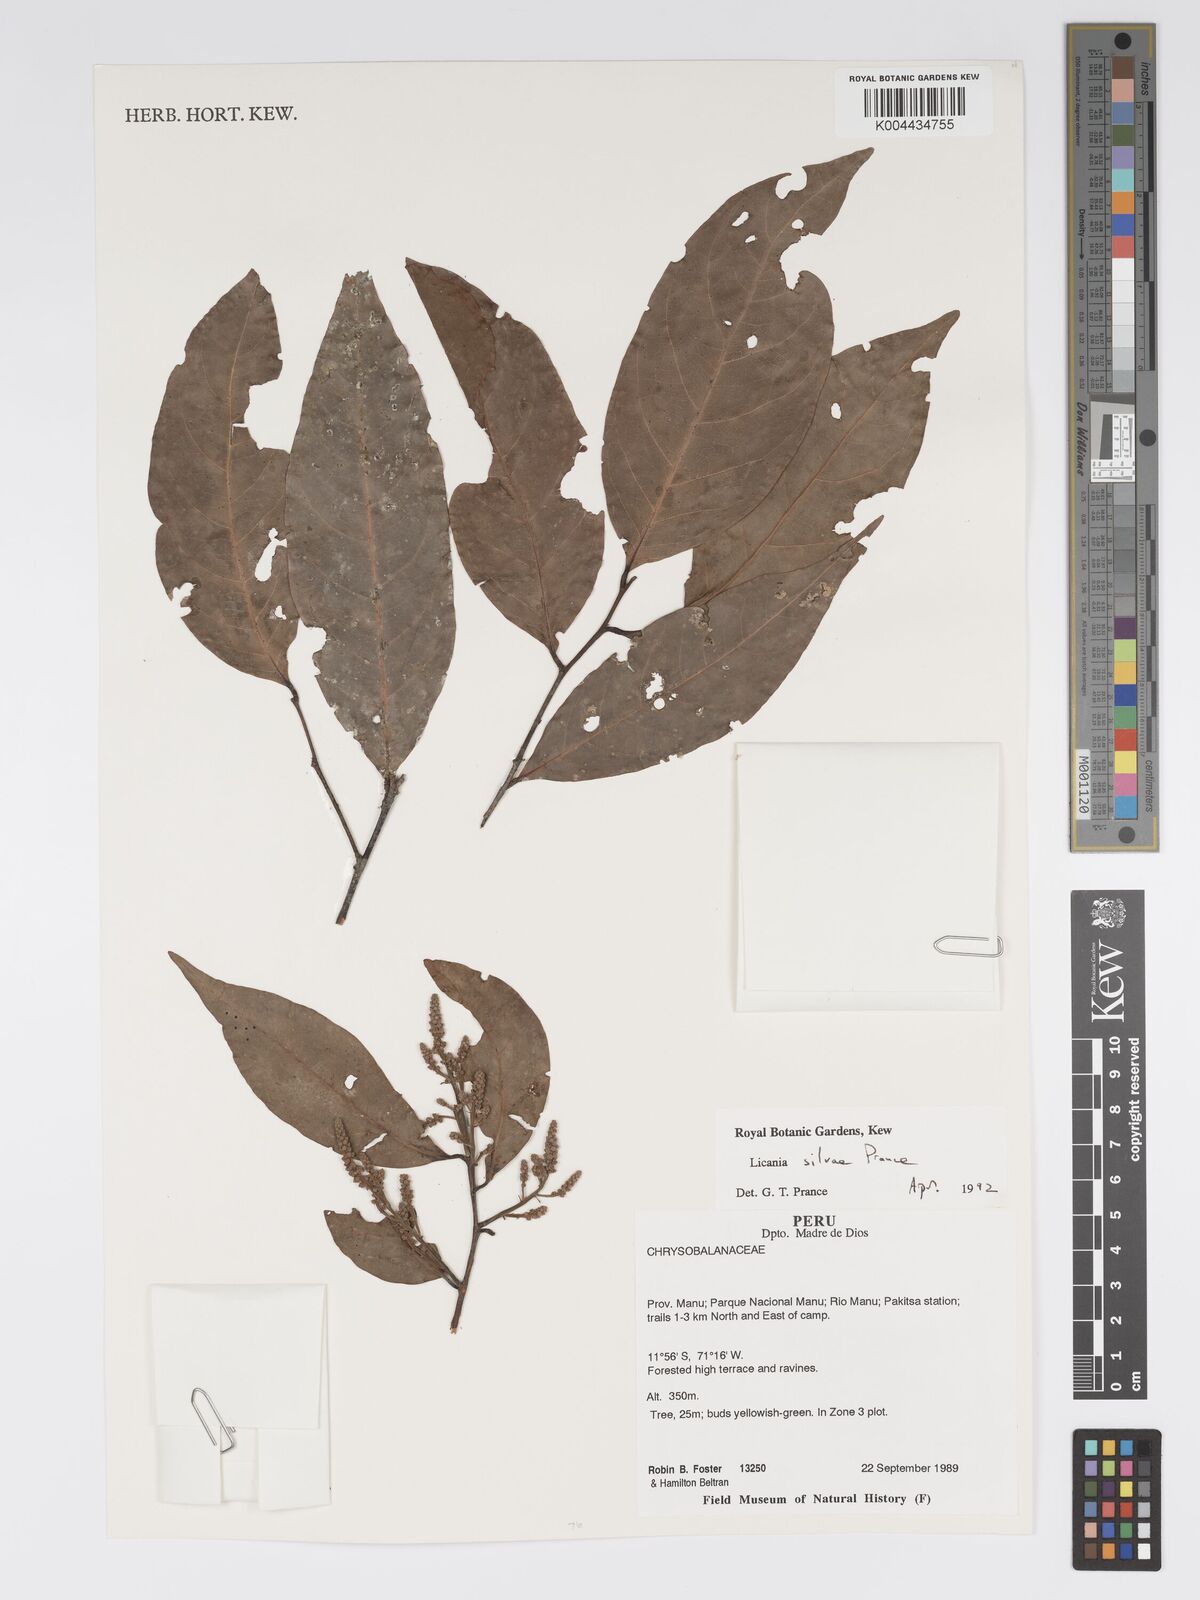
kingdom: Plantae
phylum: Tracheophyta
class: Magnoliopsida
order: Malpighiales
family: Chrysobalanaceae
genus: Licania
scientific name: Licania silvae
